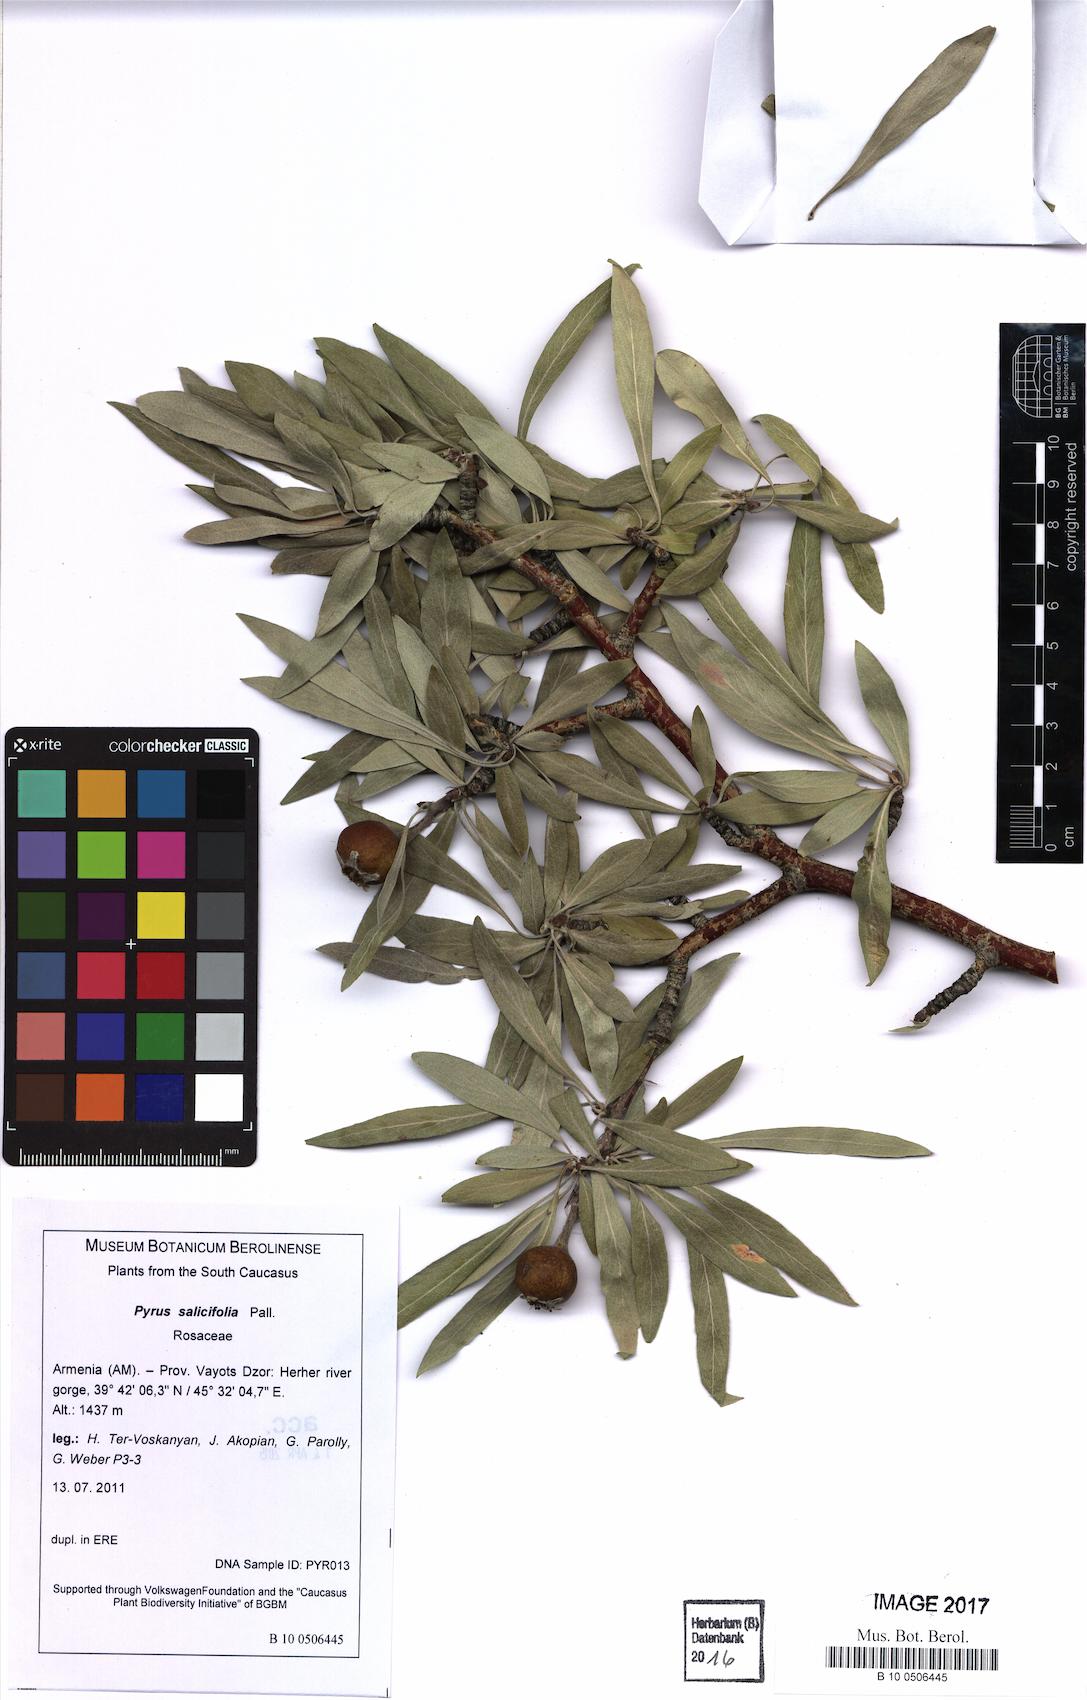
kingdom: Plantae
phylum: Tracheophyta
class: Magnoliopsida
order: Rosales
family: Rosaceae
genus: Pyrus
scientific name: Pyrus salicifolia
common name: Willow-leaved pear
